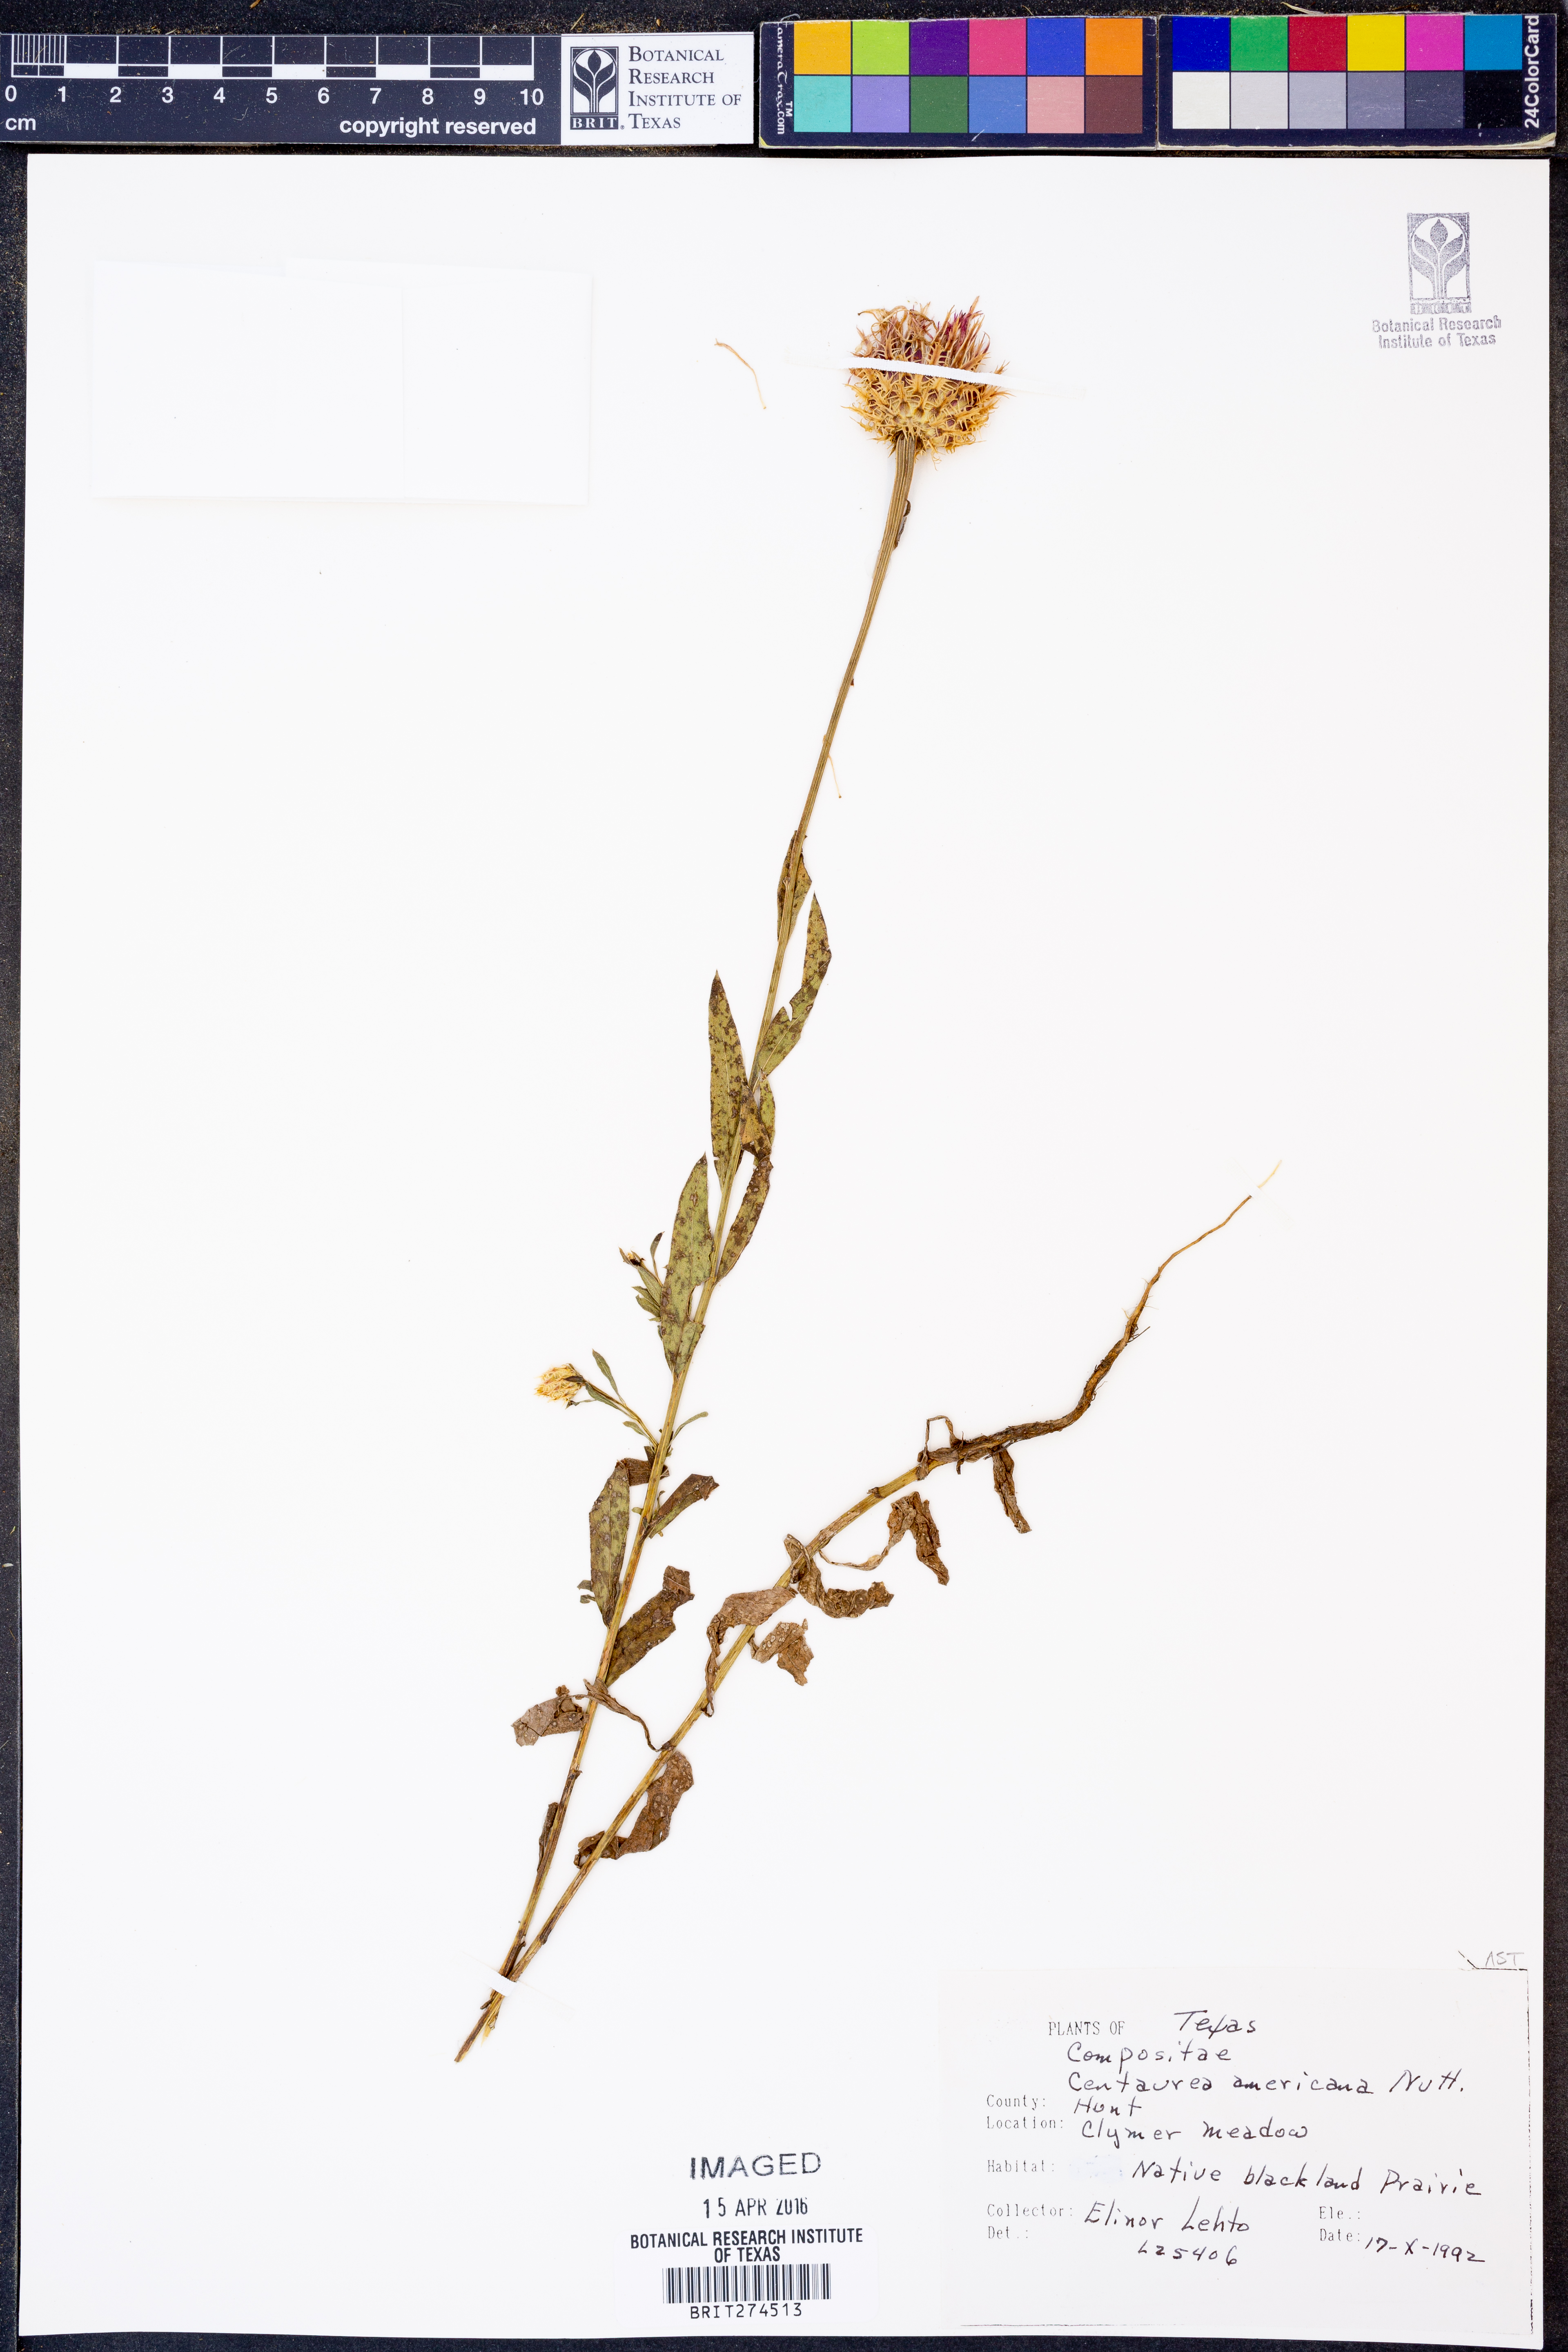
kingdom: Plantae
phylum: Tracheophyta
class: Magnoliopsida
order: Asterales
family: Asteraceae
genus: Plectocephalus
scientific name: Plectocephalus americanus
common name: American basket-flower
